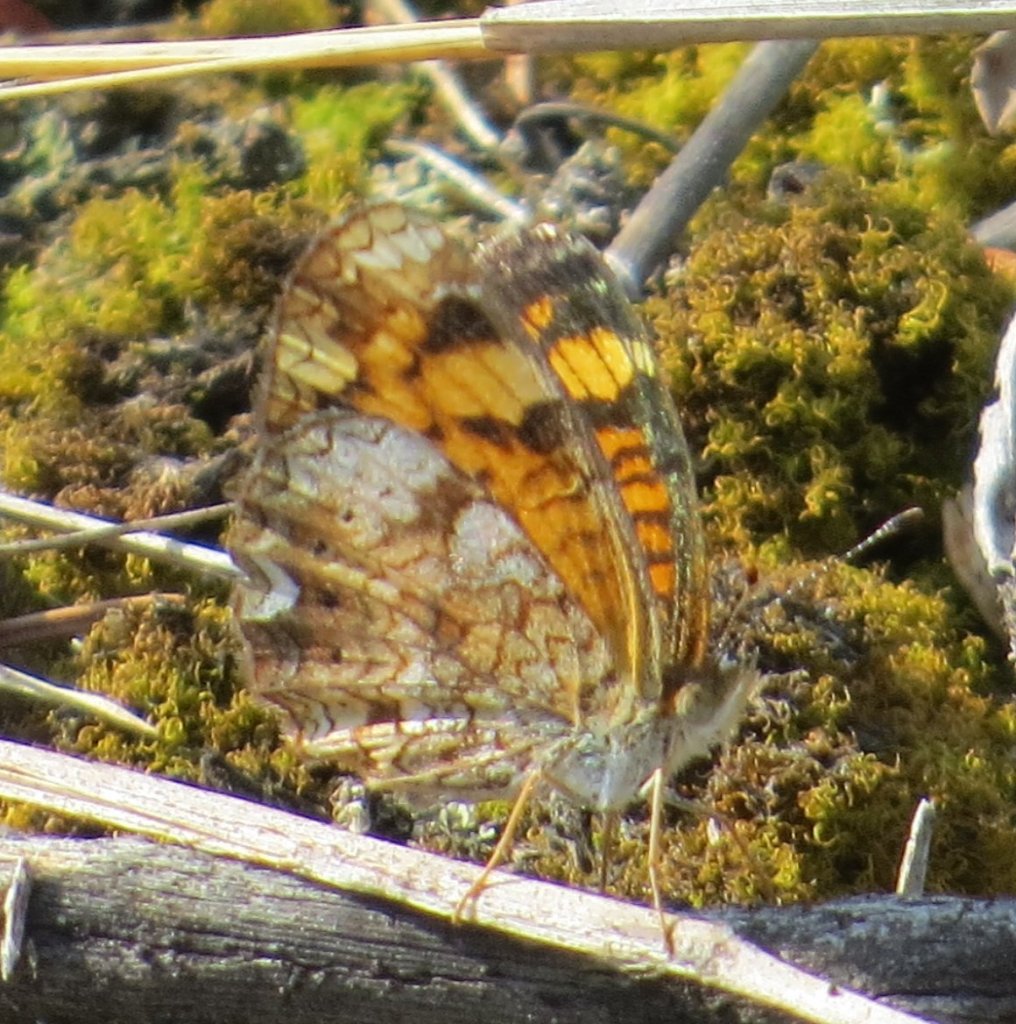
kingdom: Animalia
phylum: Arthropoda
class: Insecta
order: Lepidoptera
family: Nymphalidae
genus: Phyciodes
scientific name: Phyciodes tharos
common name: Pearl Crescent
